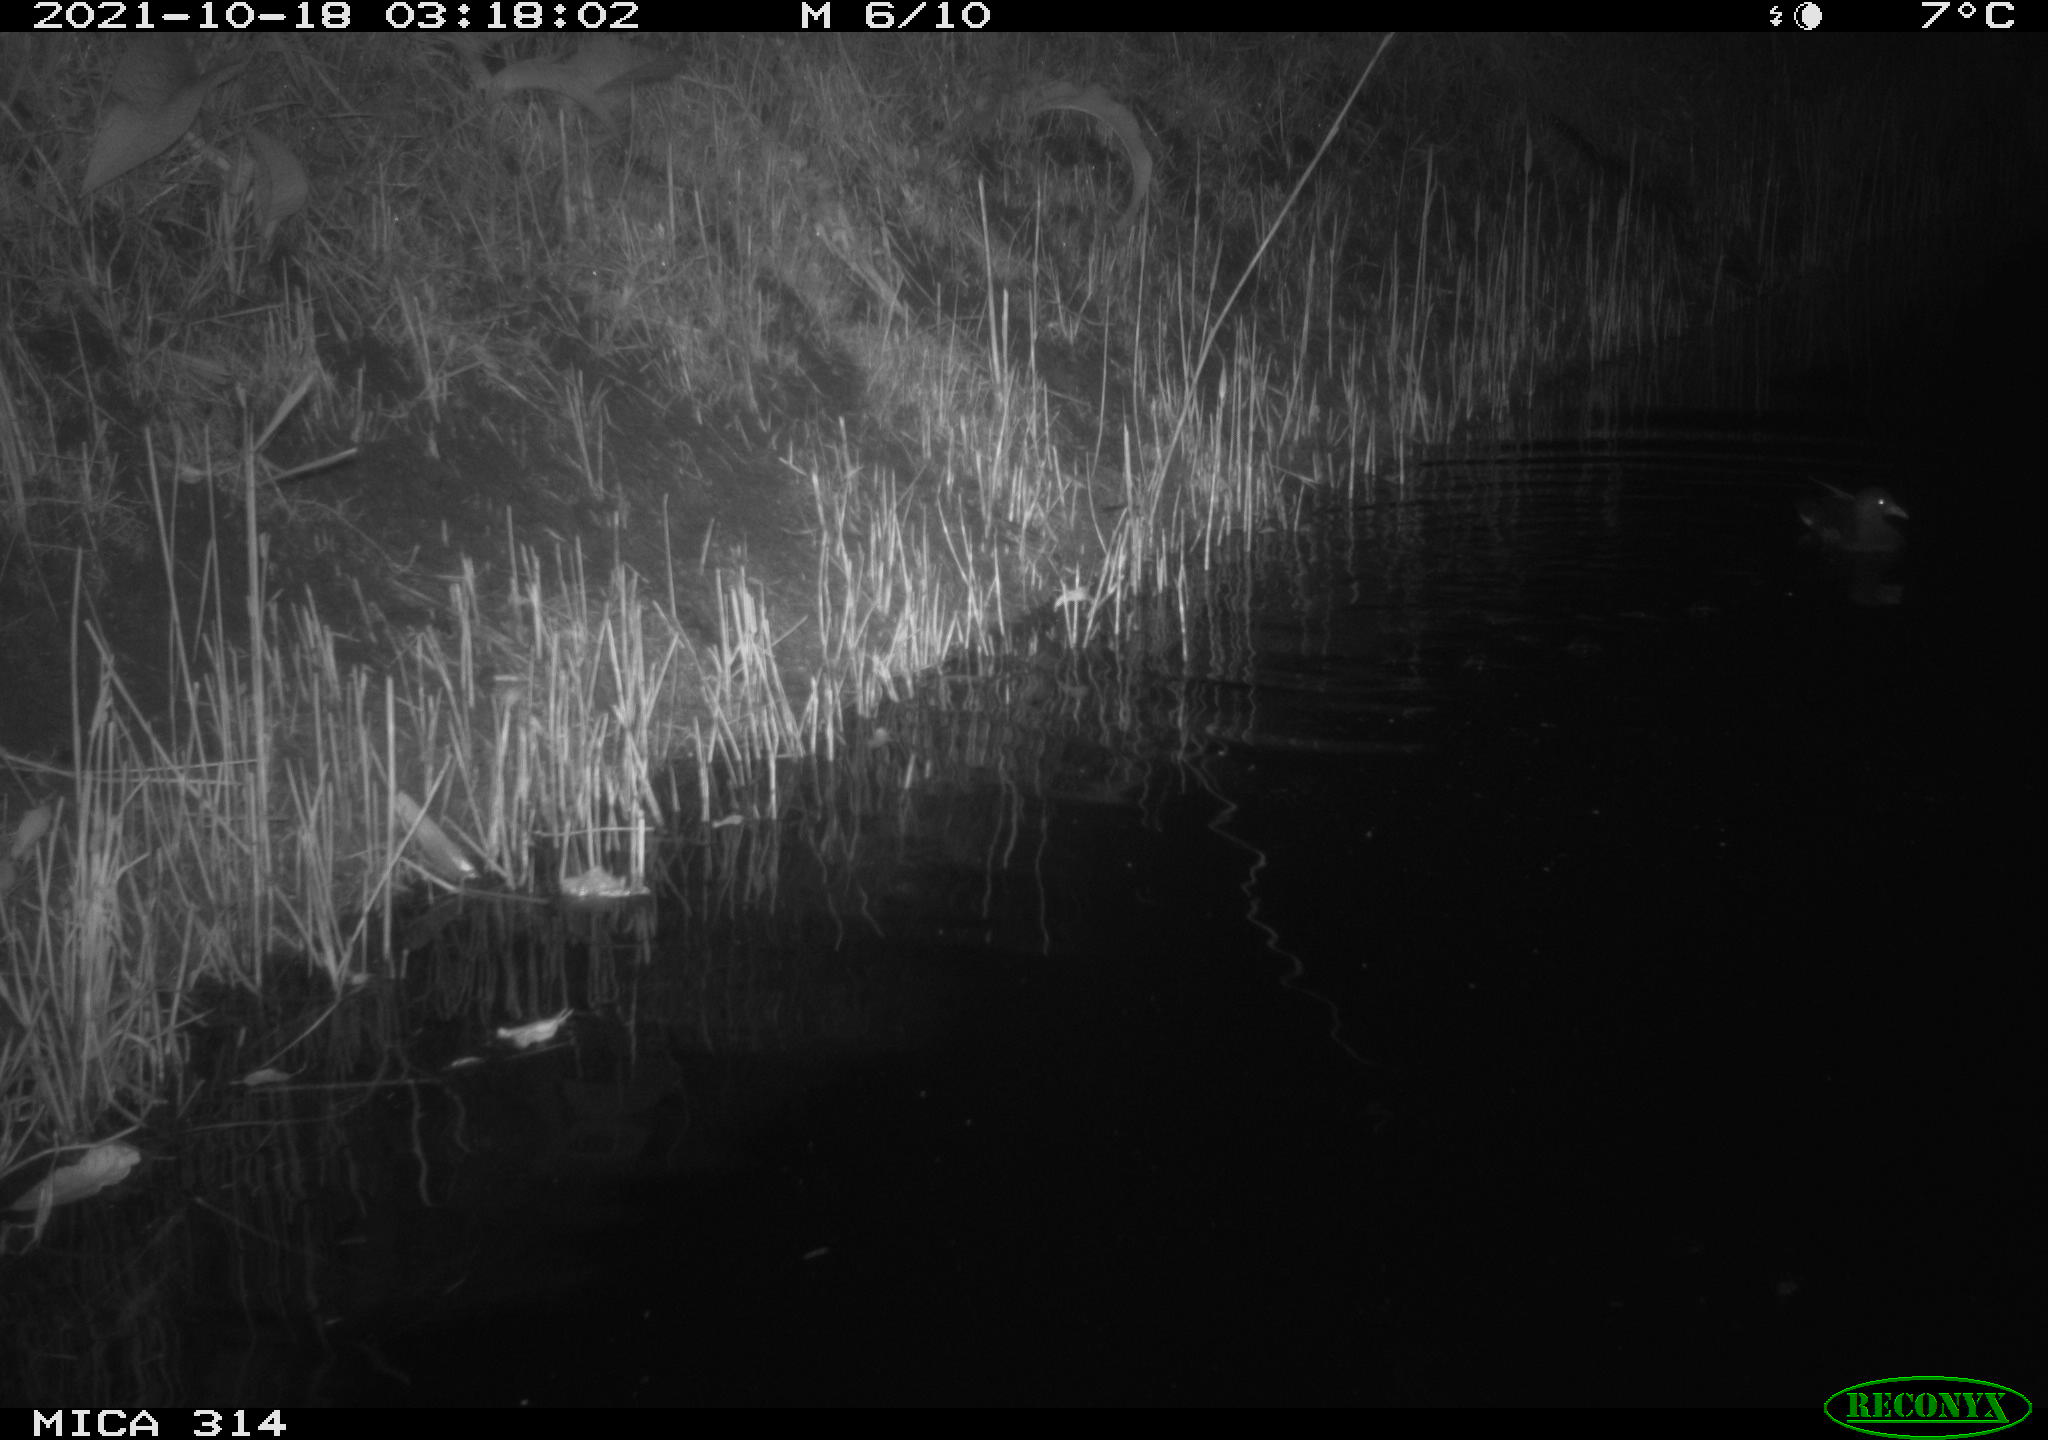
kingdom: Animalia
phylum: Chordata
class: Mammalia
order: Rodentia
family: Muridae
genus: Rattus
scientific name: Rattus norvegicus
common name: Brown rat
